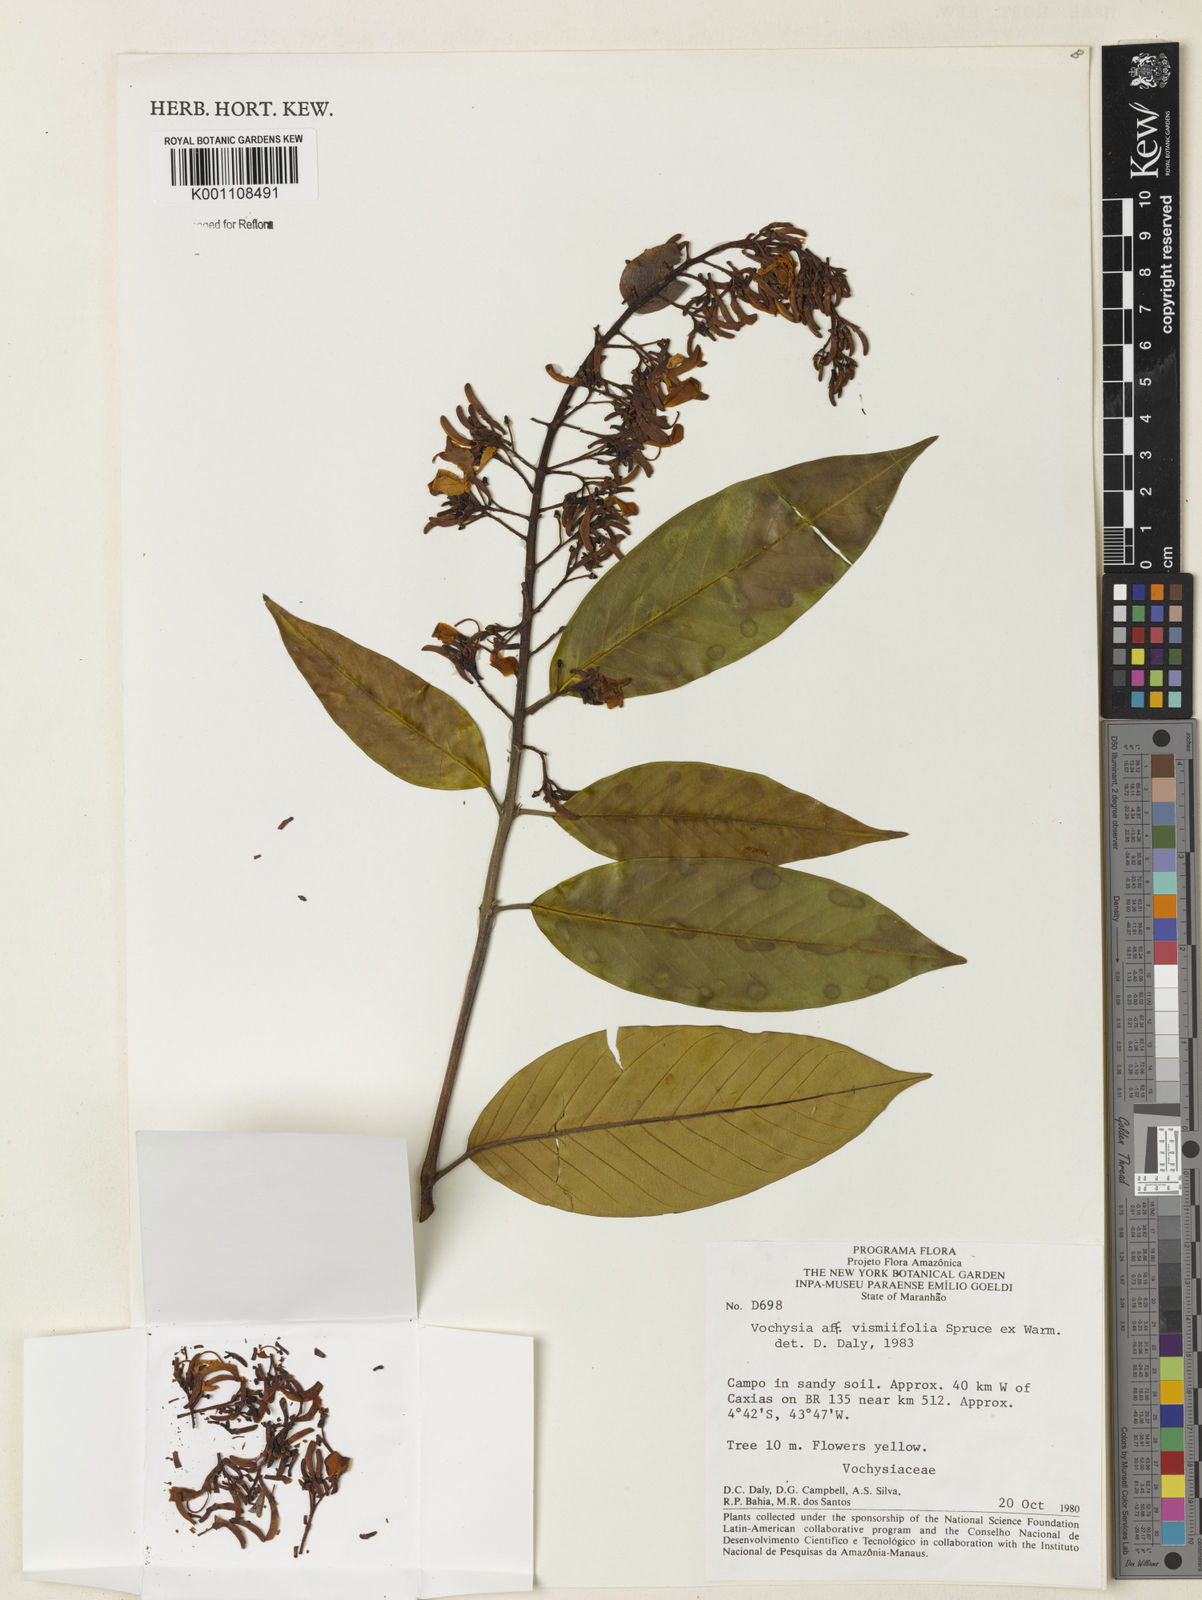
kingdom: Plantae
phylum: Tracheophyta
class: Magnoliopsida
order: Myrtales
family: Vochysiaceae
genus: Vochysia
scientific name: Vochysia vismiifolia
